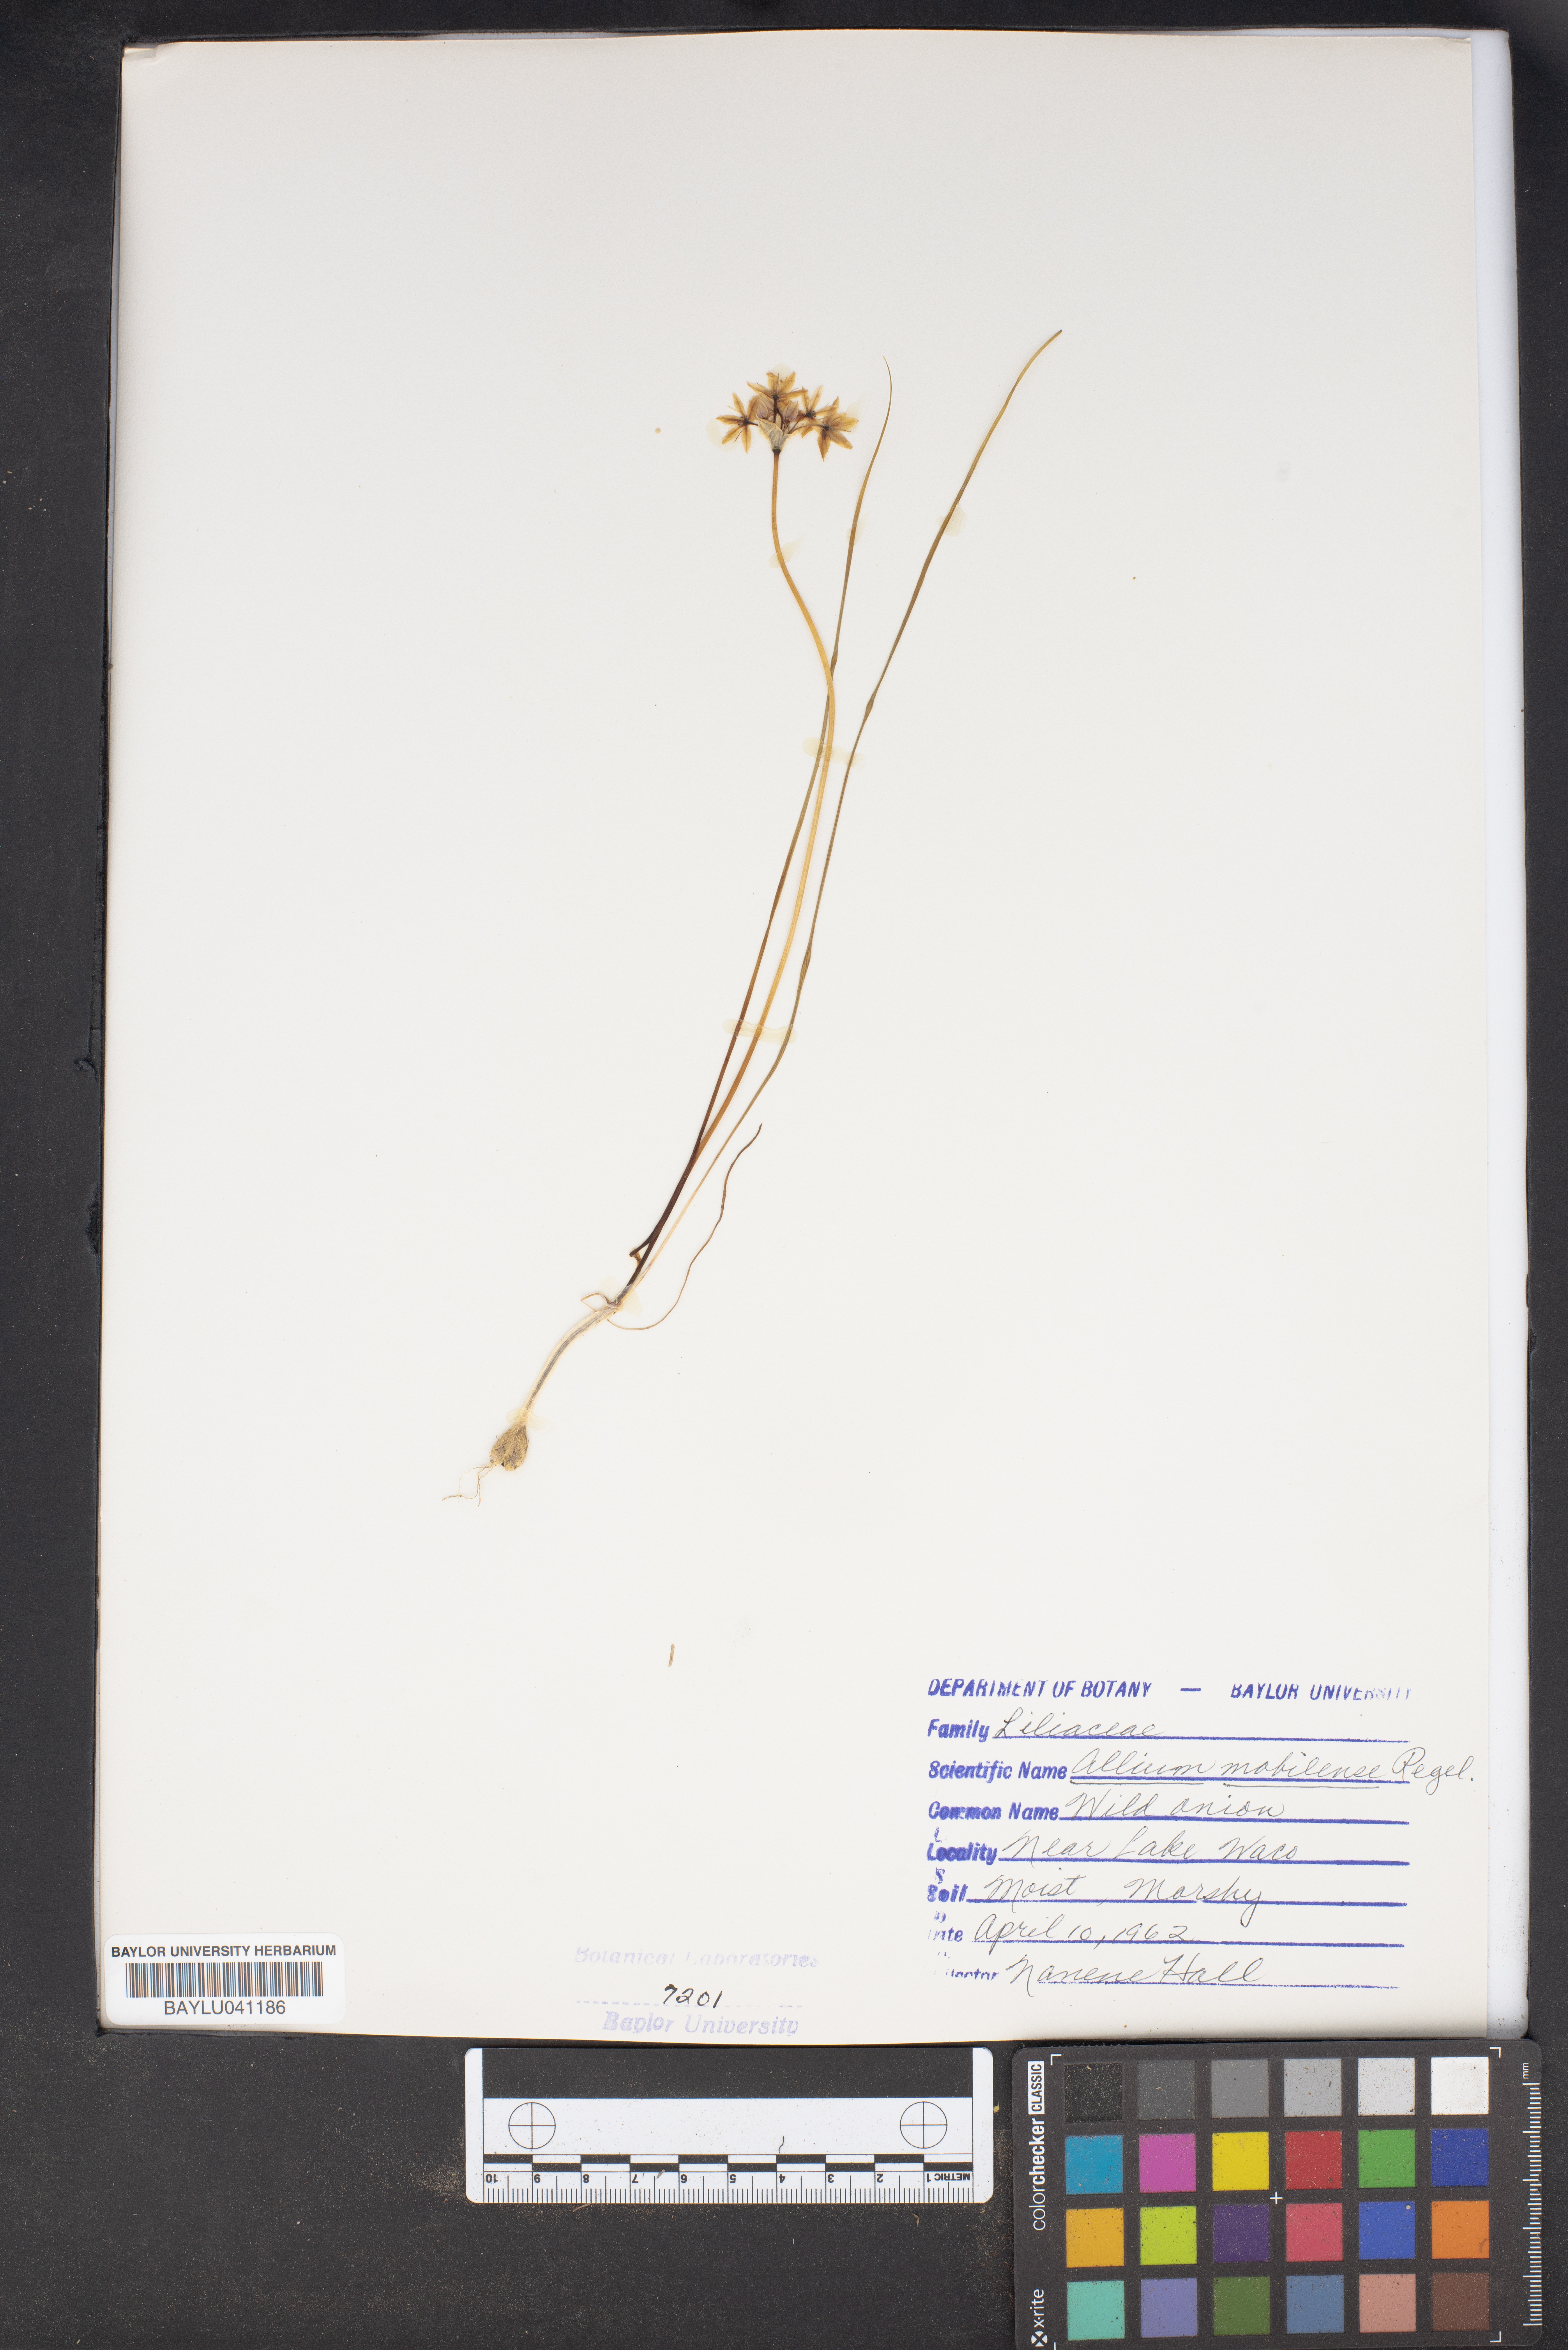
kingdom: Plantae
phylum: Tracheophyta
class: Liliopsida
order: Asparagales
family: Amaryllidaceae
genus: Allium
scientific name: Allium canadense
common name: Meadow garlic
